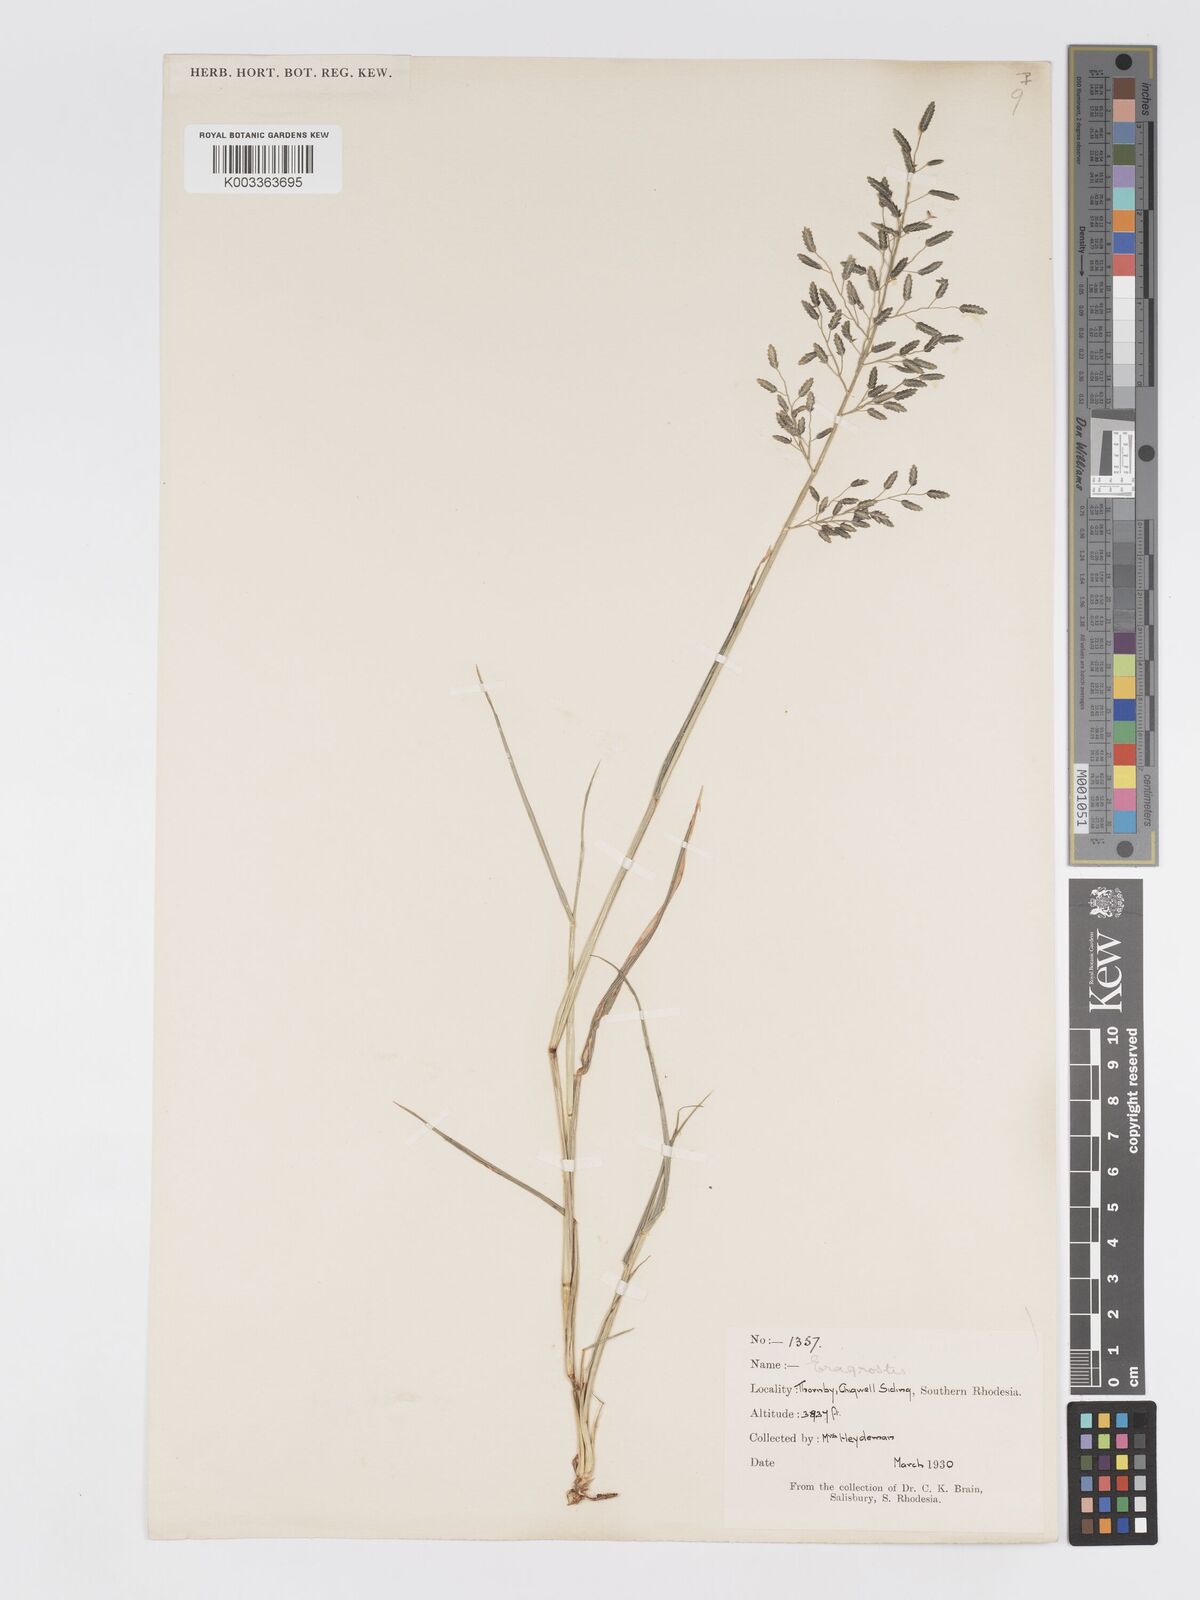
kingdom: Plantae
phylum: Tracheophyta
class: Liliopsida
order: Poales
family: Poaceae
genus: Eragrostis
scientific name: Eragrostis cilianensis
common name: Stinkgrass
